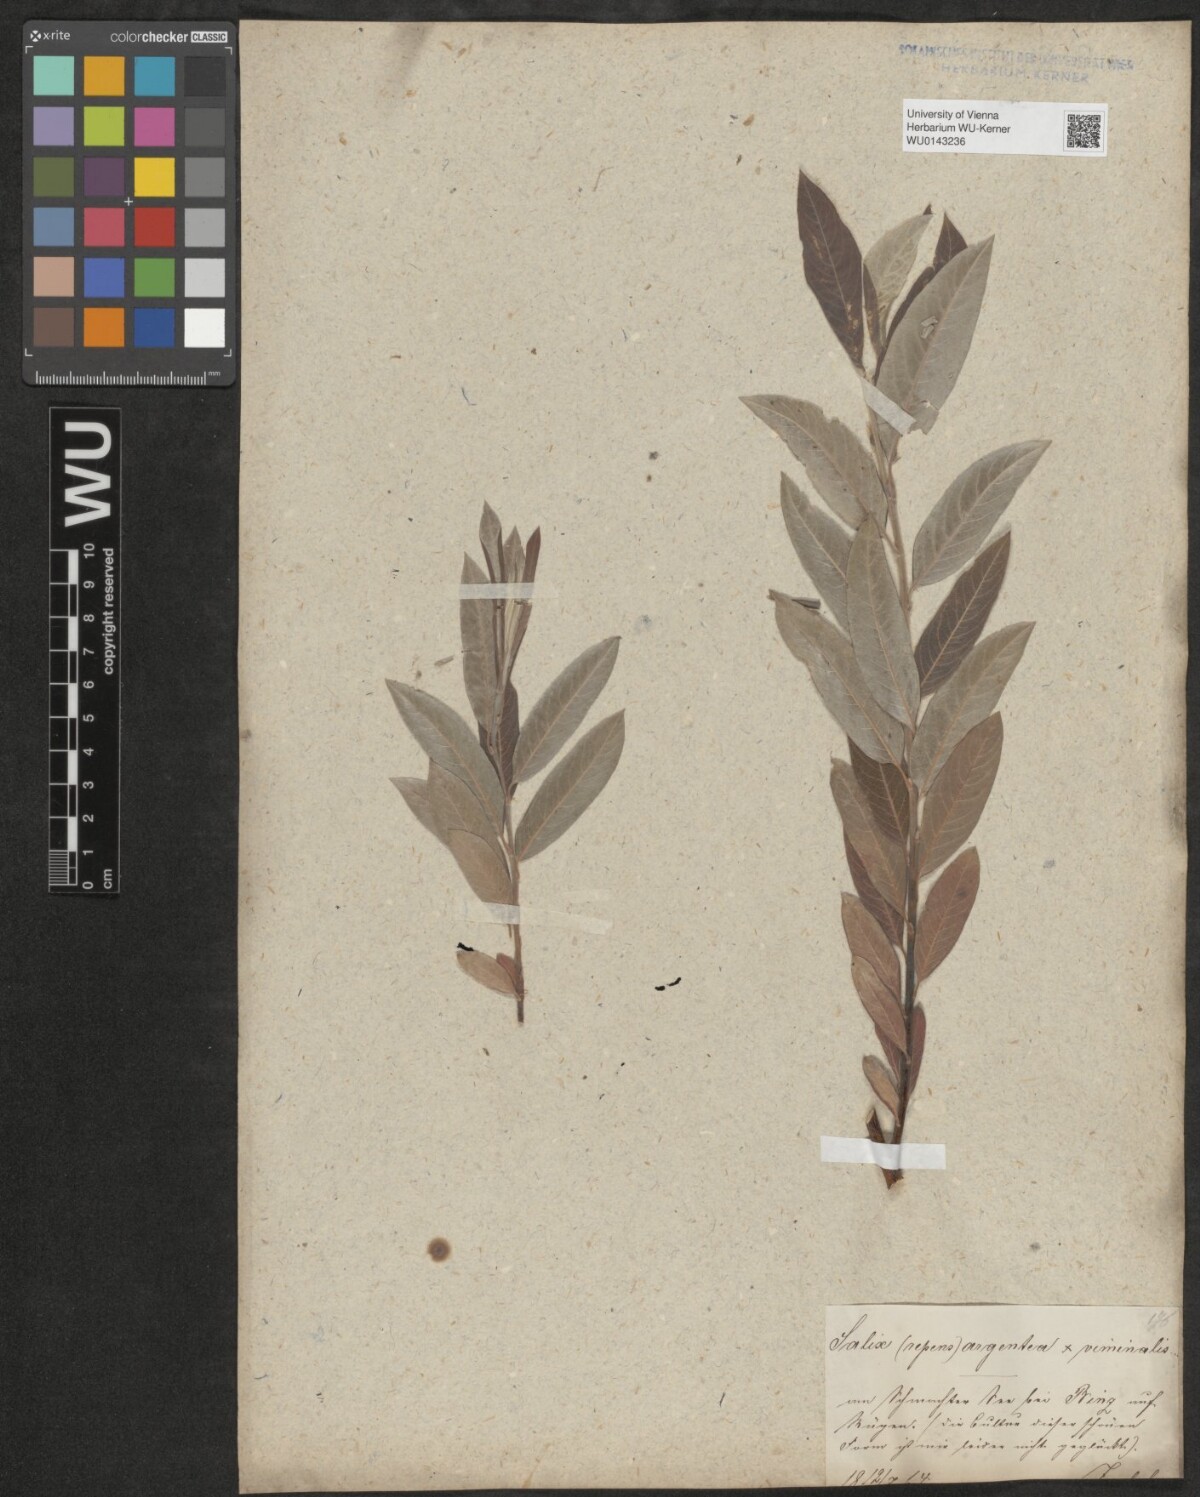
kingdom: Plantae
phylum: Tracheophyta
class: Magnoliopsida
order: Malpighiales
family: Salicaceae
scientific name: Salicaceae
